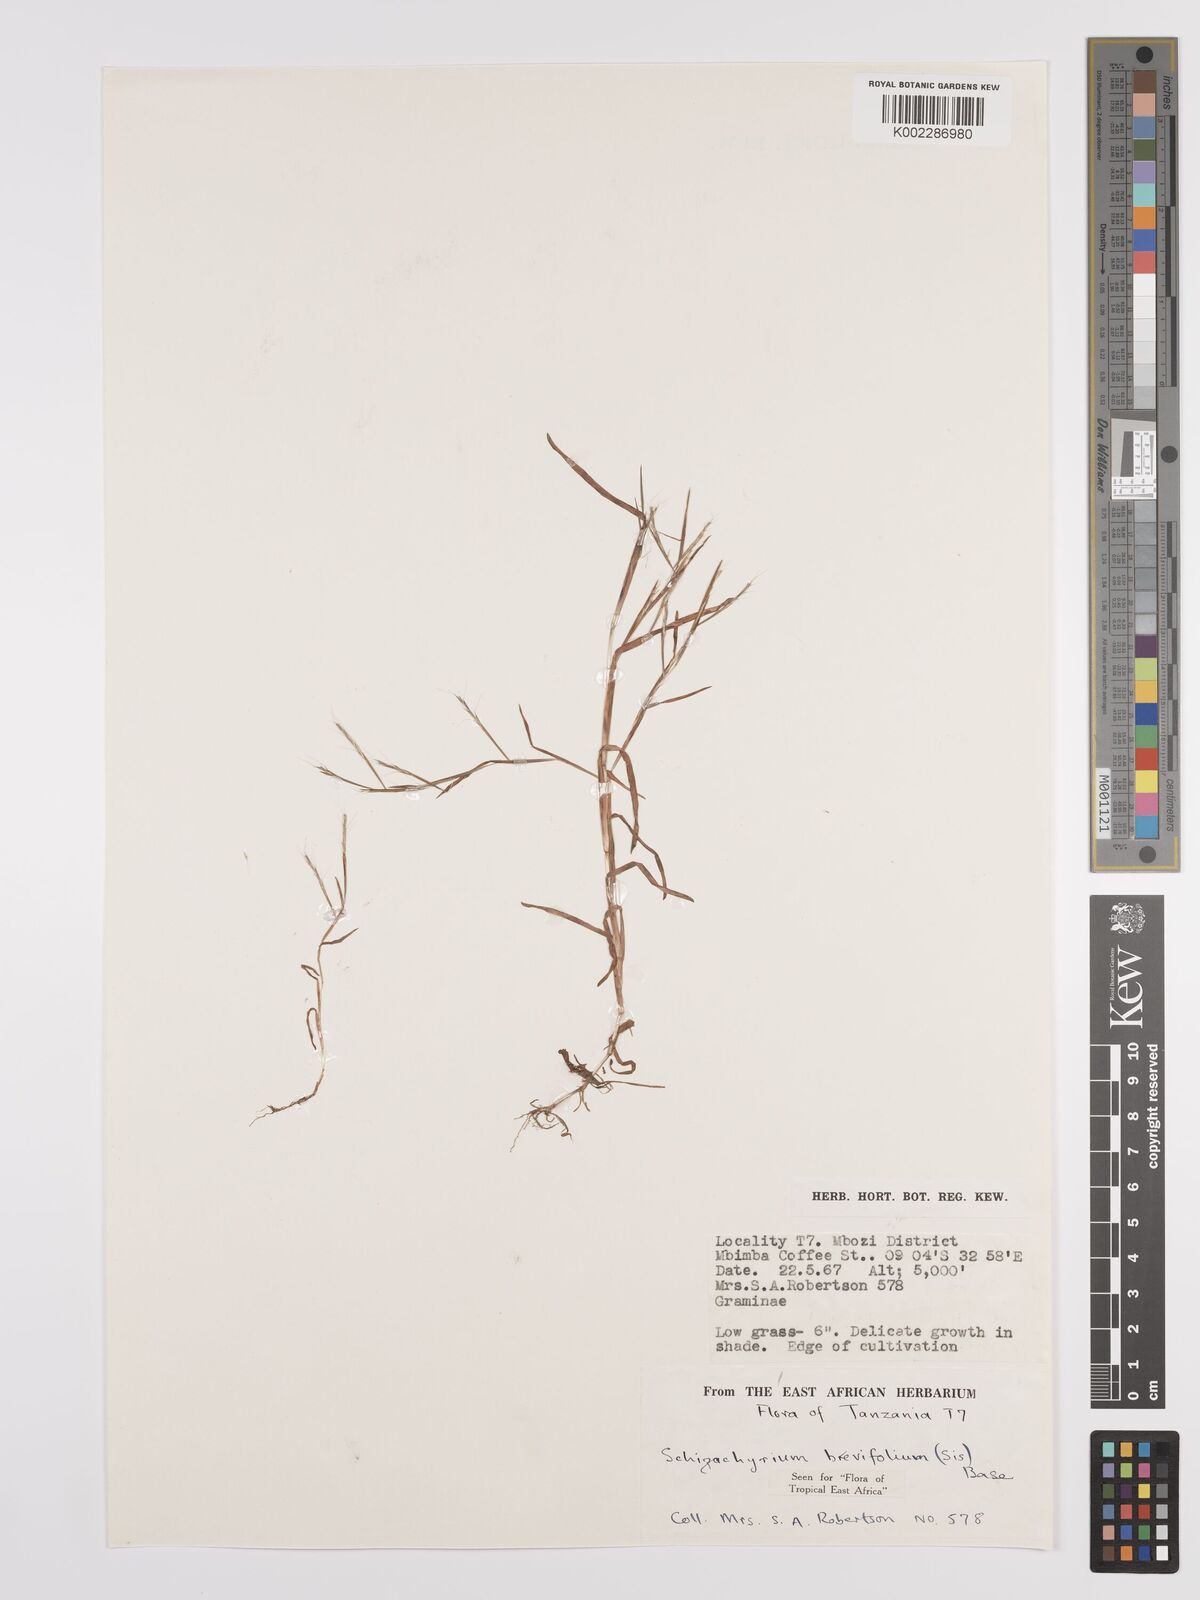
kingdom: Plantae
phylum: Tracheophyta
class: Liliopsida
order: Poales
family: Poaceae
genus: Schizachyrium
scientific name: Schizachyrium brevifolium
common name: Serillo dulce
